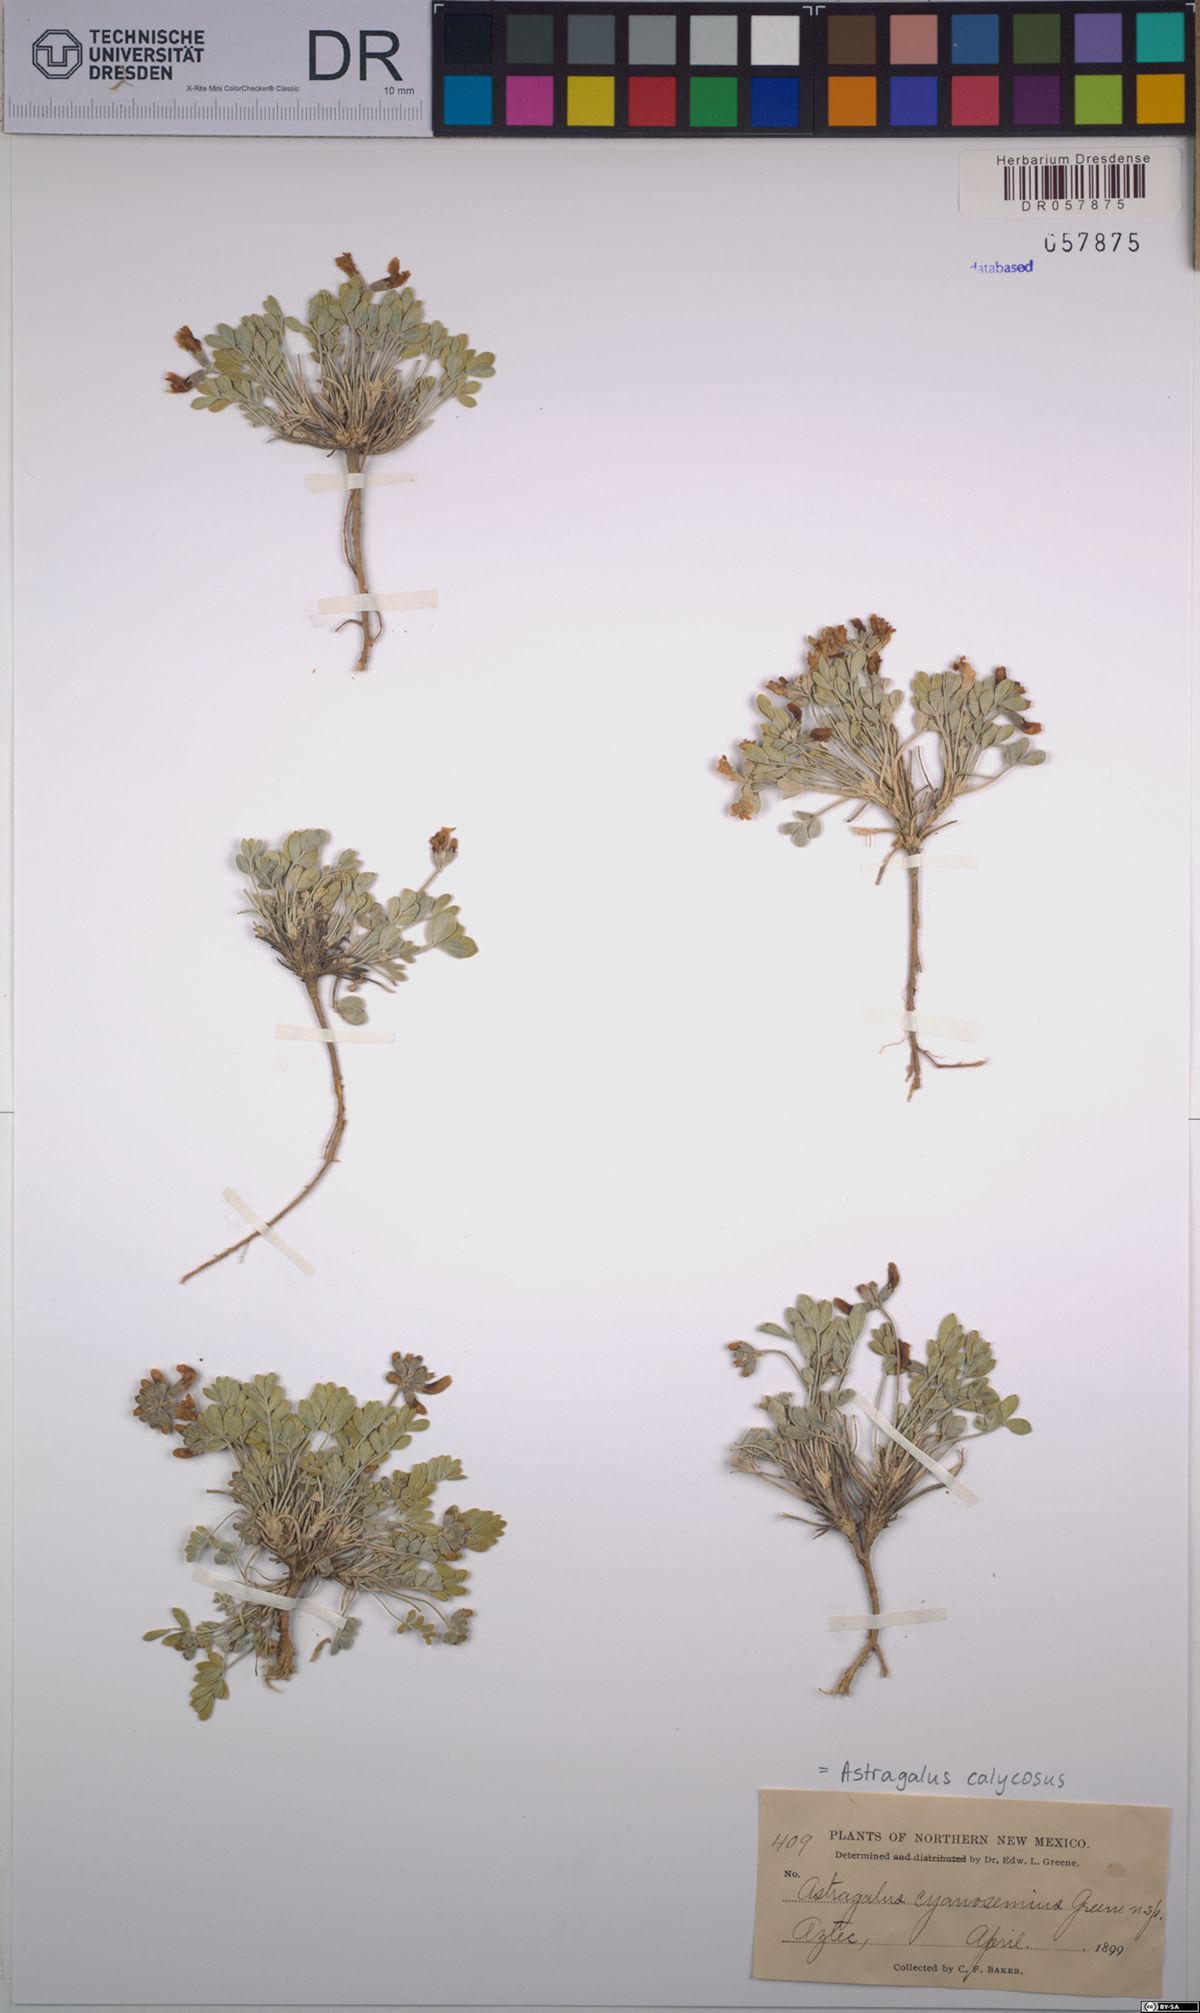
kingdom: Plantae
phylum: Tracheophyta
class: Magnoliopsida
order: Fabales
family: Fabaceae
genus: Astragalus
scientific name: Astragalus calycosus
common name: King's milkvetch
